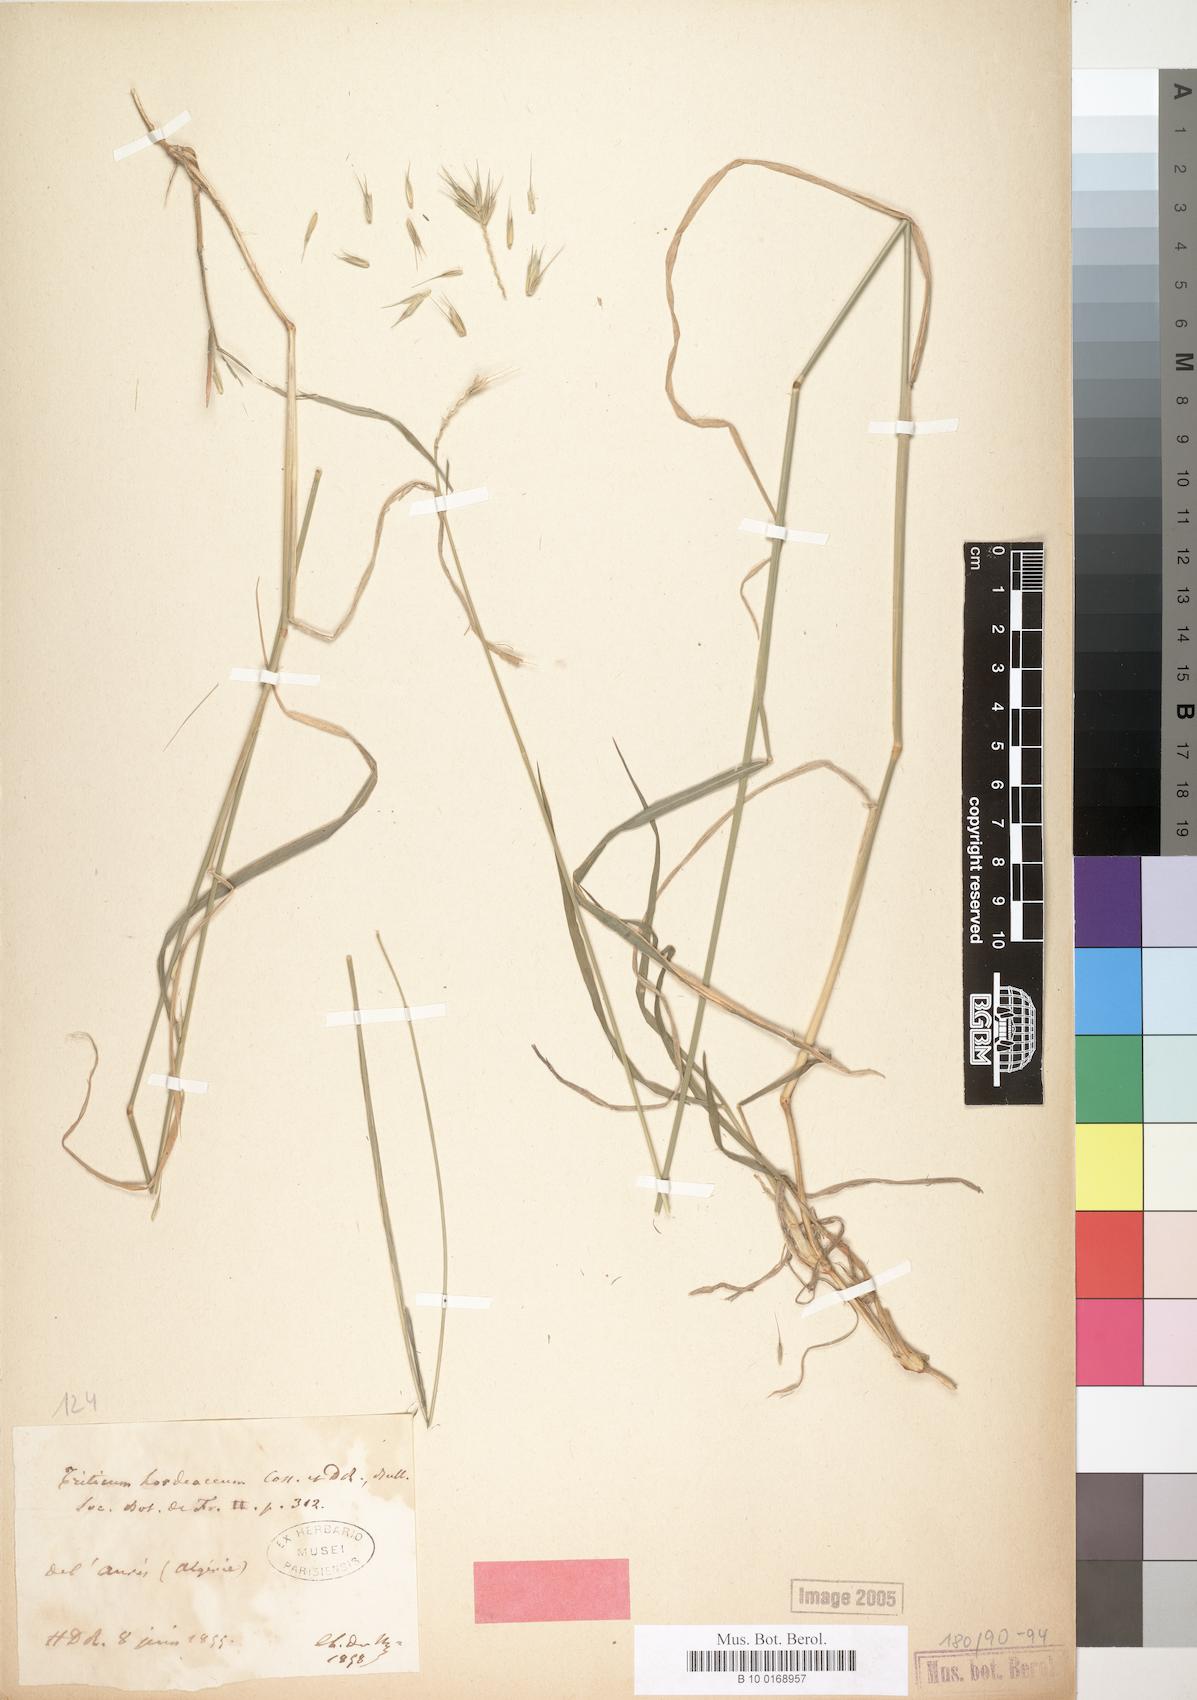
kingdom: Plantae
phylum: Tracheophyta
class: Liliopsida
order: Poales
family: Poaceae
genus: Dasypyrum
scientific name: Dasypyrum hordeaceum
